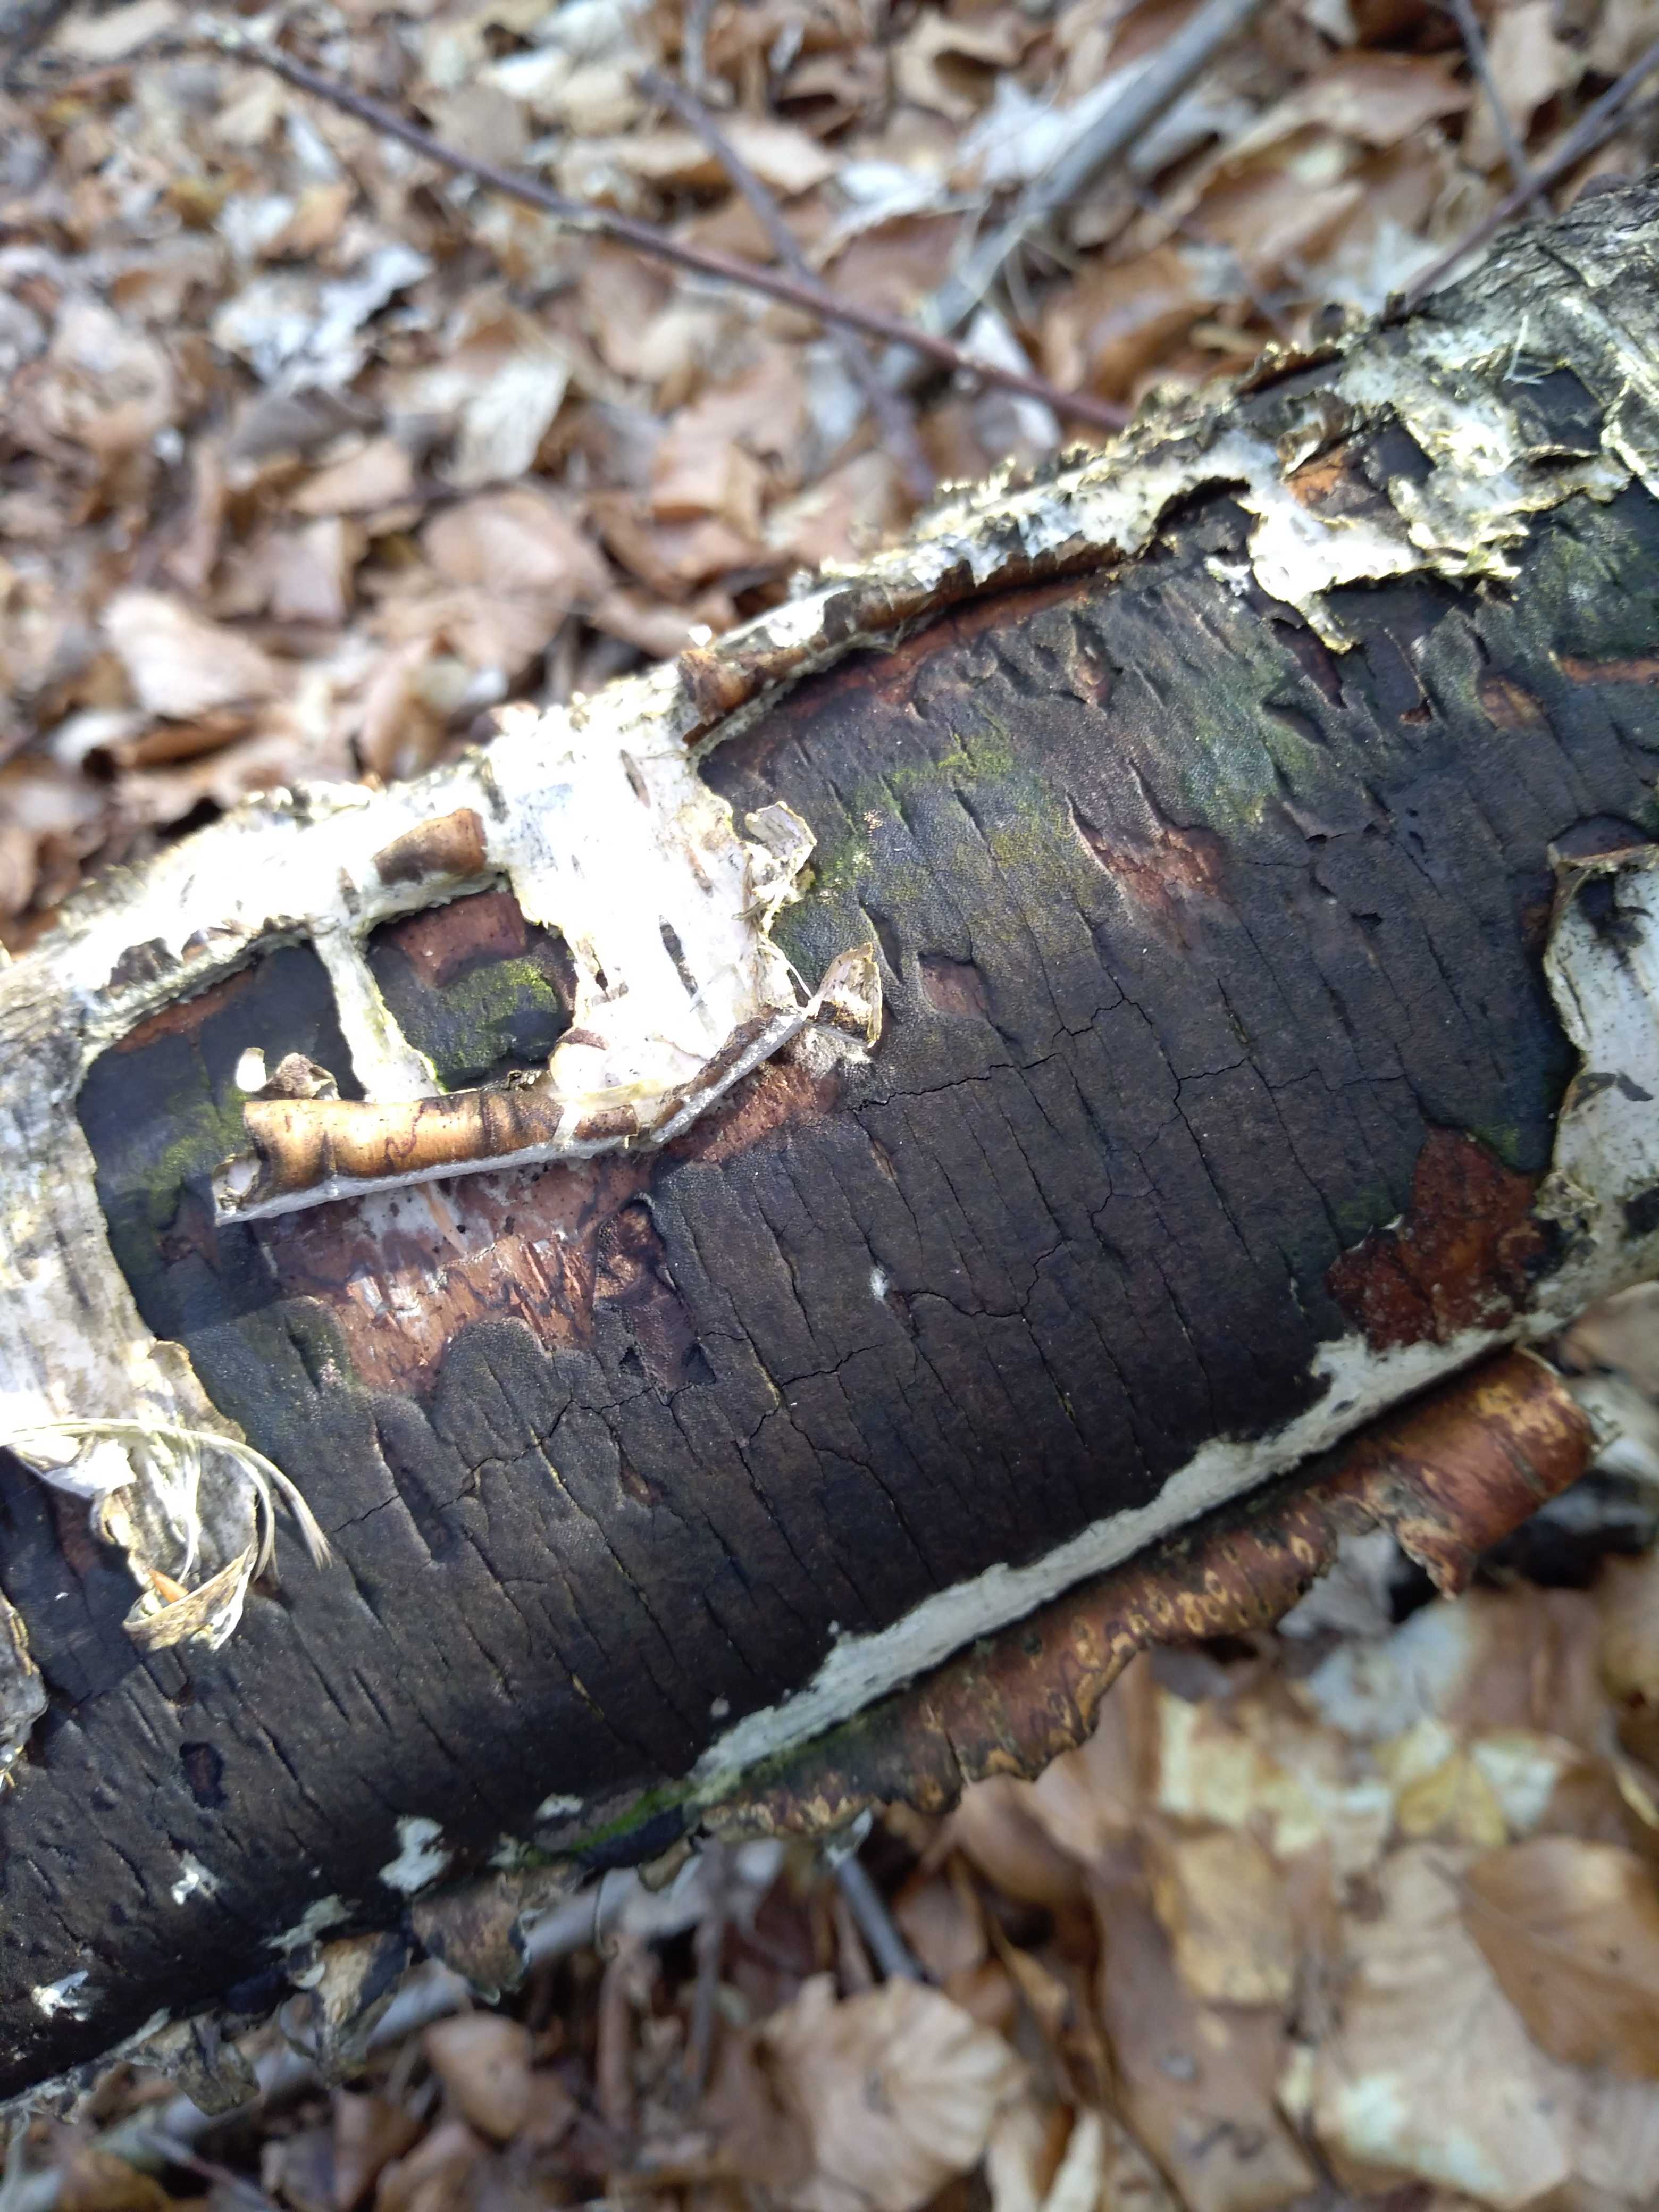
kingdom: Fungi
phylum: Ascomycota
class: Sordariomycetes
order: Xylariales
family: Diatrypaceae
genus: Diatrype
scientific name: Diatrype
